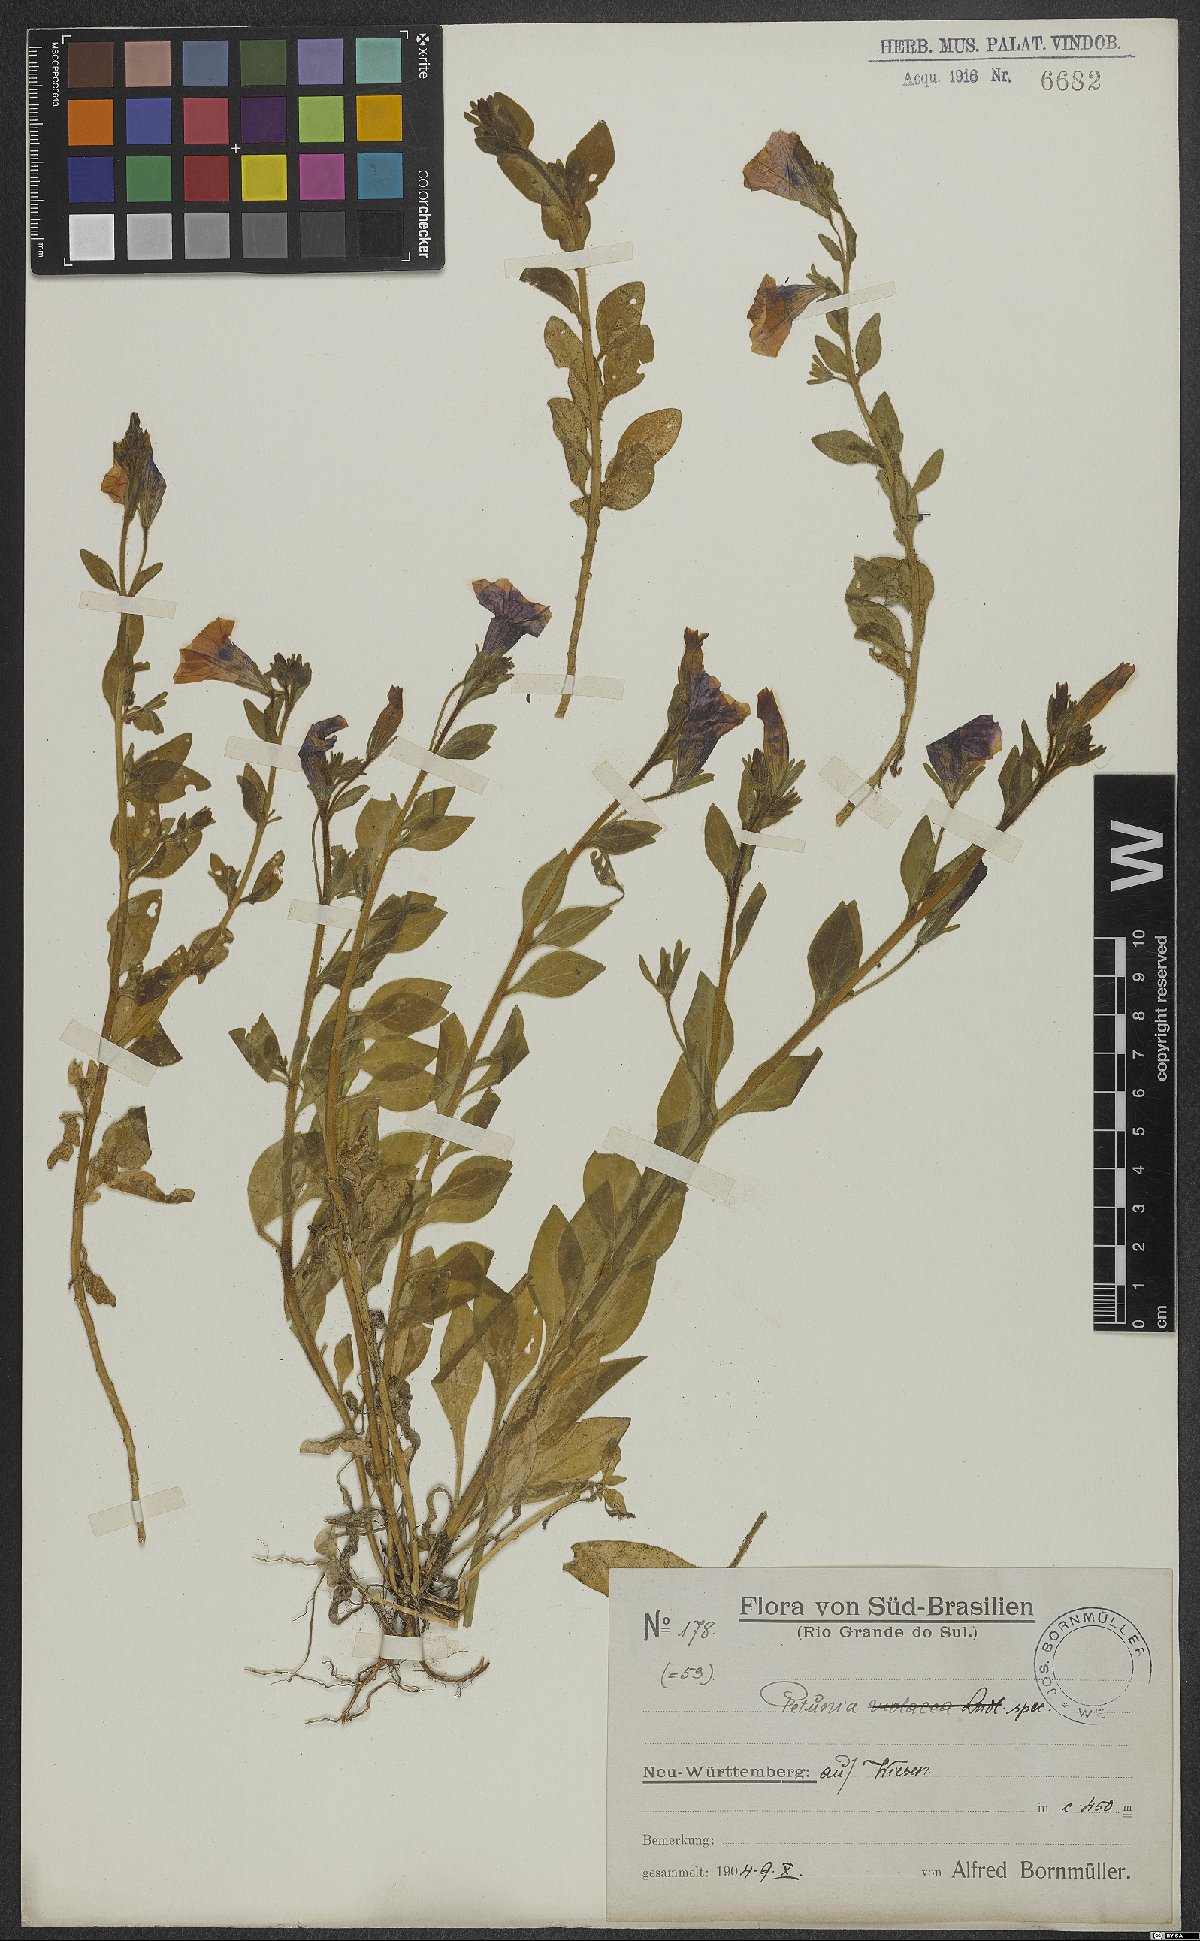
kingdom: Plantae
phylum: Tracheophyta
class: Magnoliopsida
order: Solanales
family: Solanaceae
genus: Petunia
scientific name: Petunia
